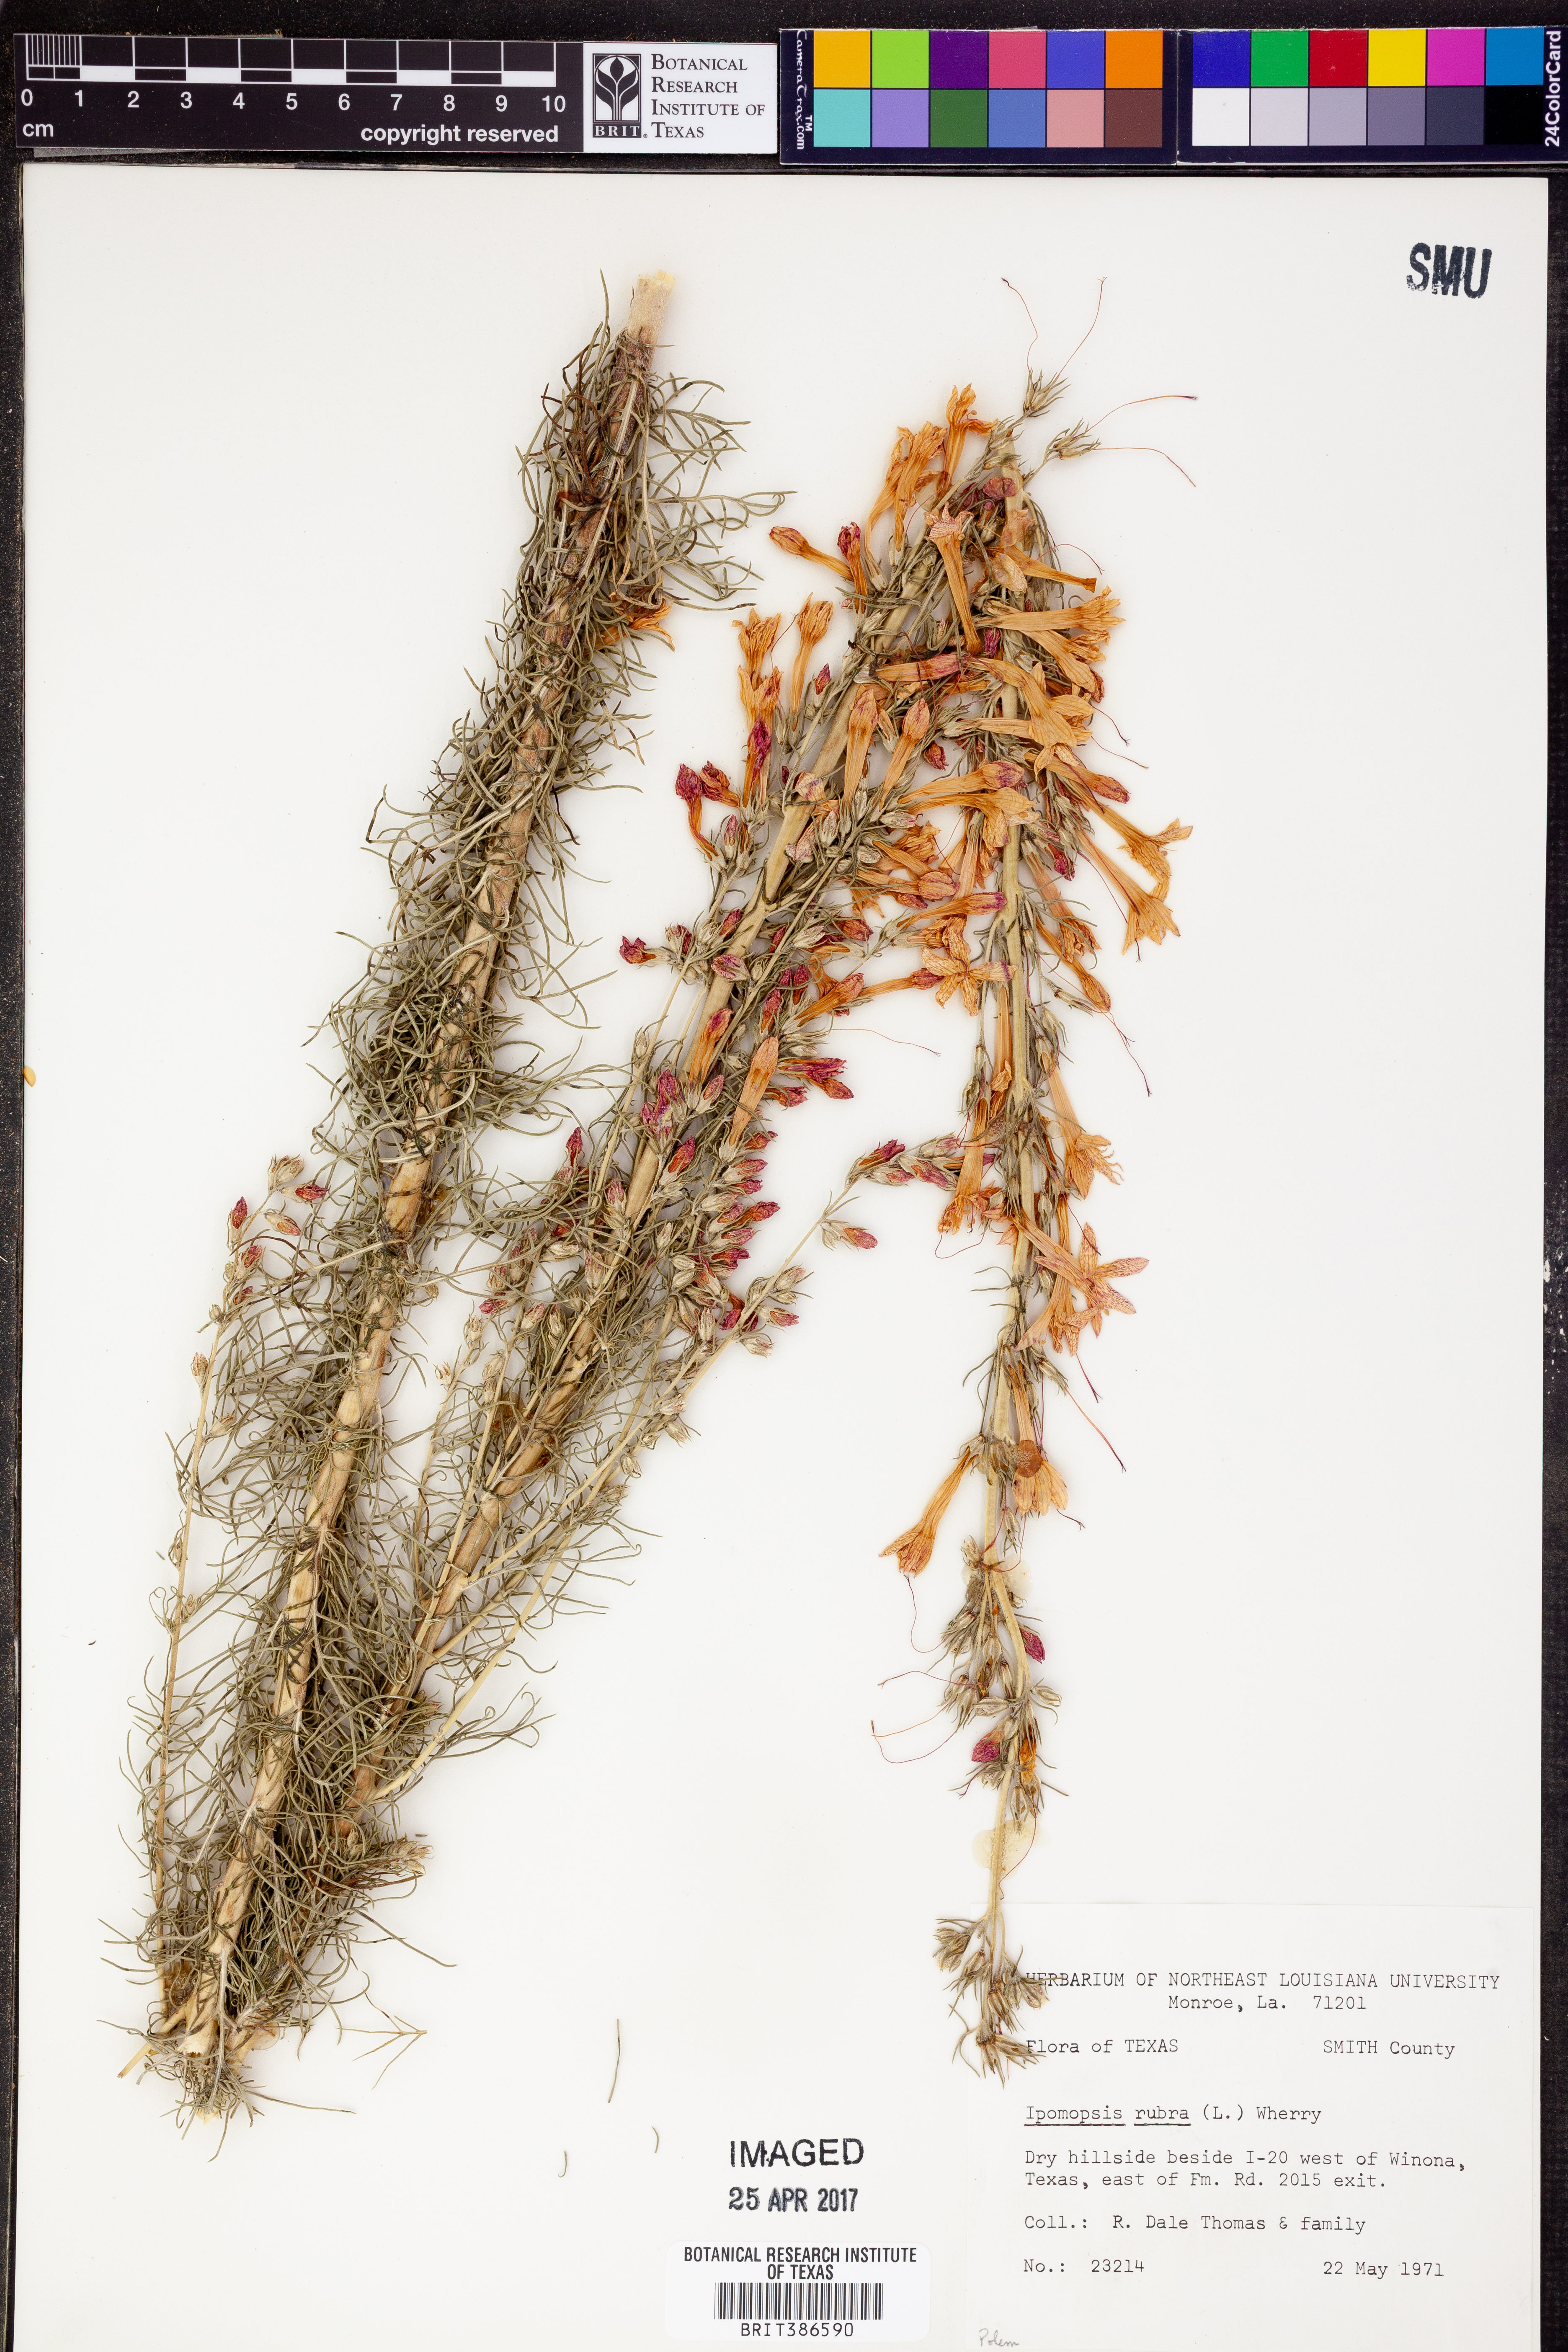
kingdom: Plantae
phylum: Tracheophyta
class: Magnoliopsida
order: Ericales
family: Polemoniaceae
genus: Ipomopsis
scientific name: Ipomopsis rubra
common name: Skyrocket
